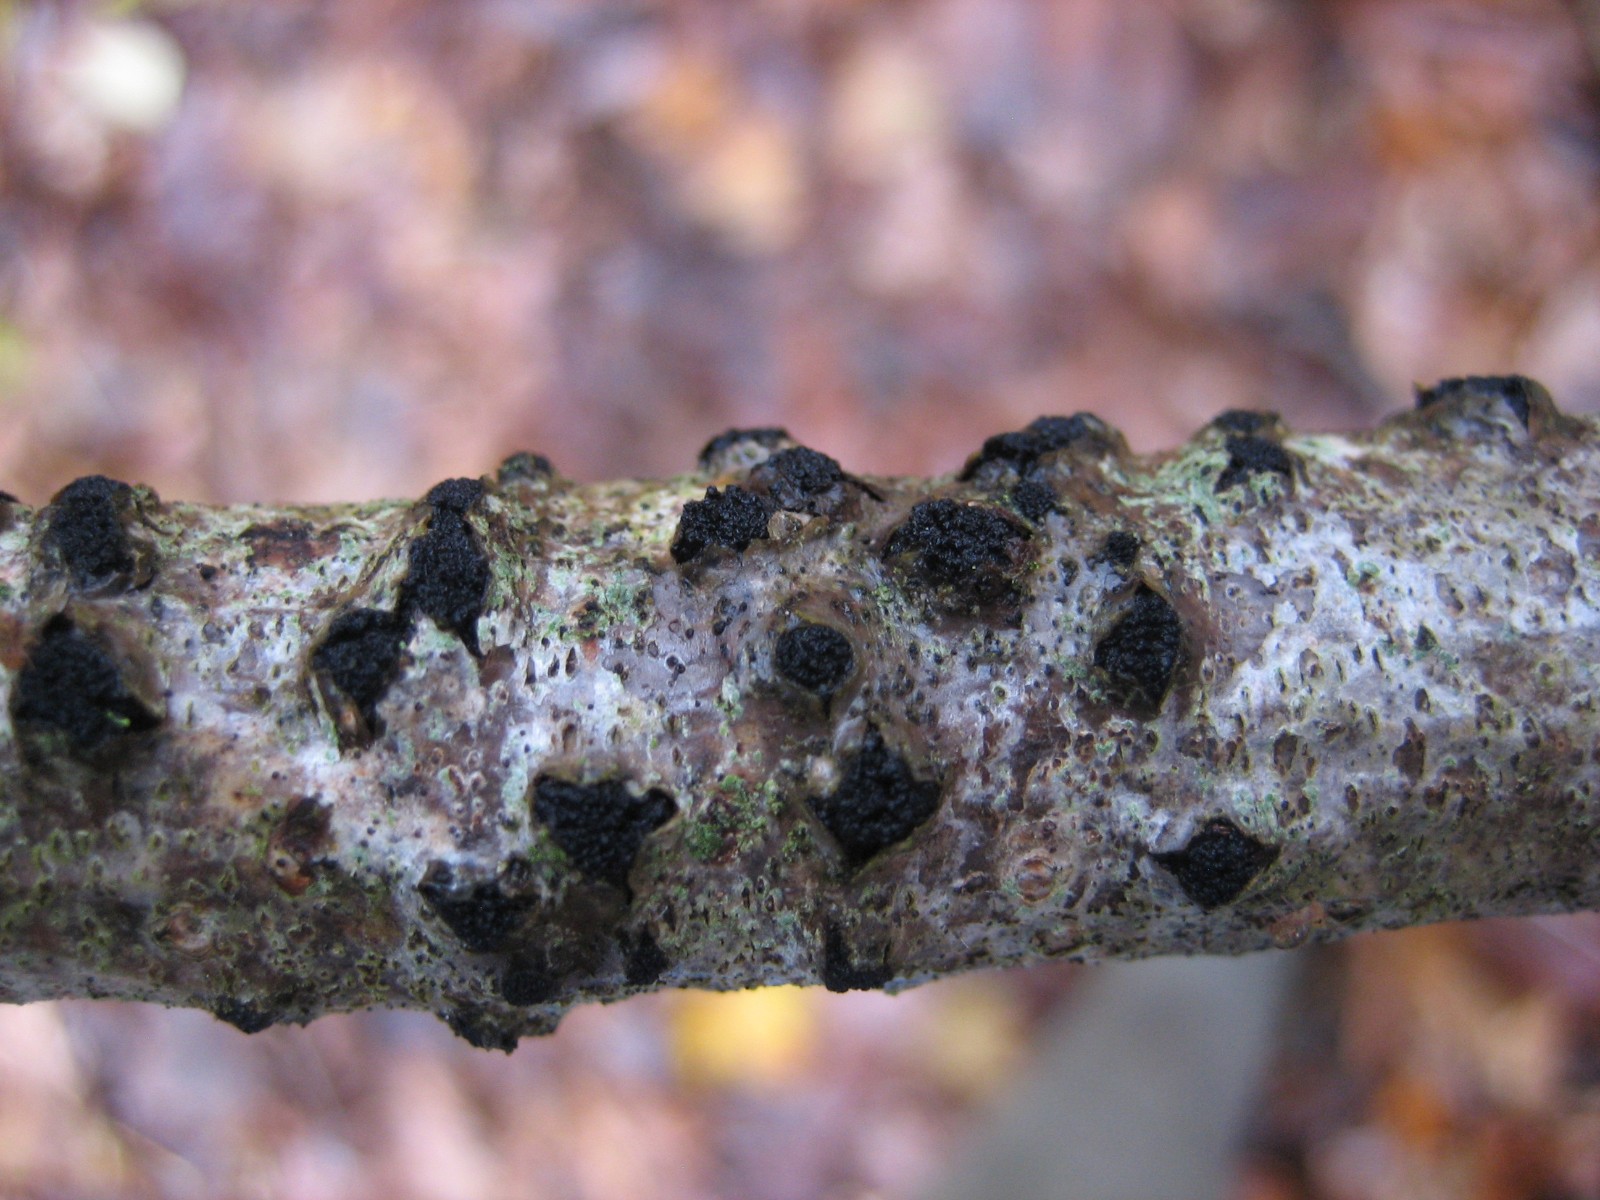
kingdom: Fungi
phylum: Ascomycota
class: Sordariomycetes
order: Xylariales
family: Diatrypaceae
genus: Diatrypella
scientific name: Diatrypella quercina
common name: ege-kulskorpe
